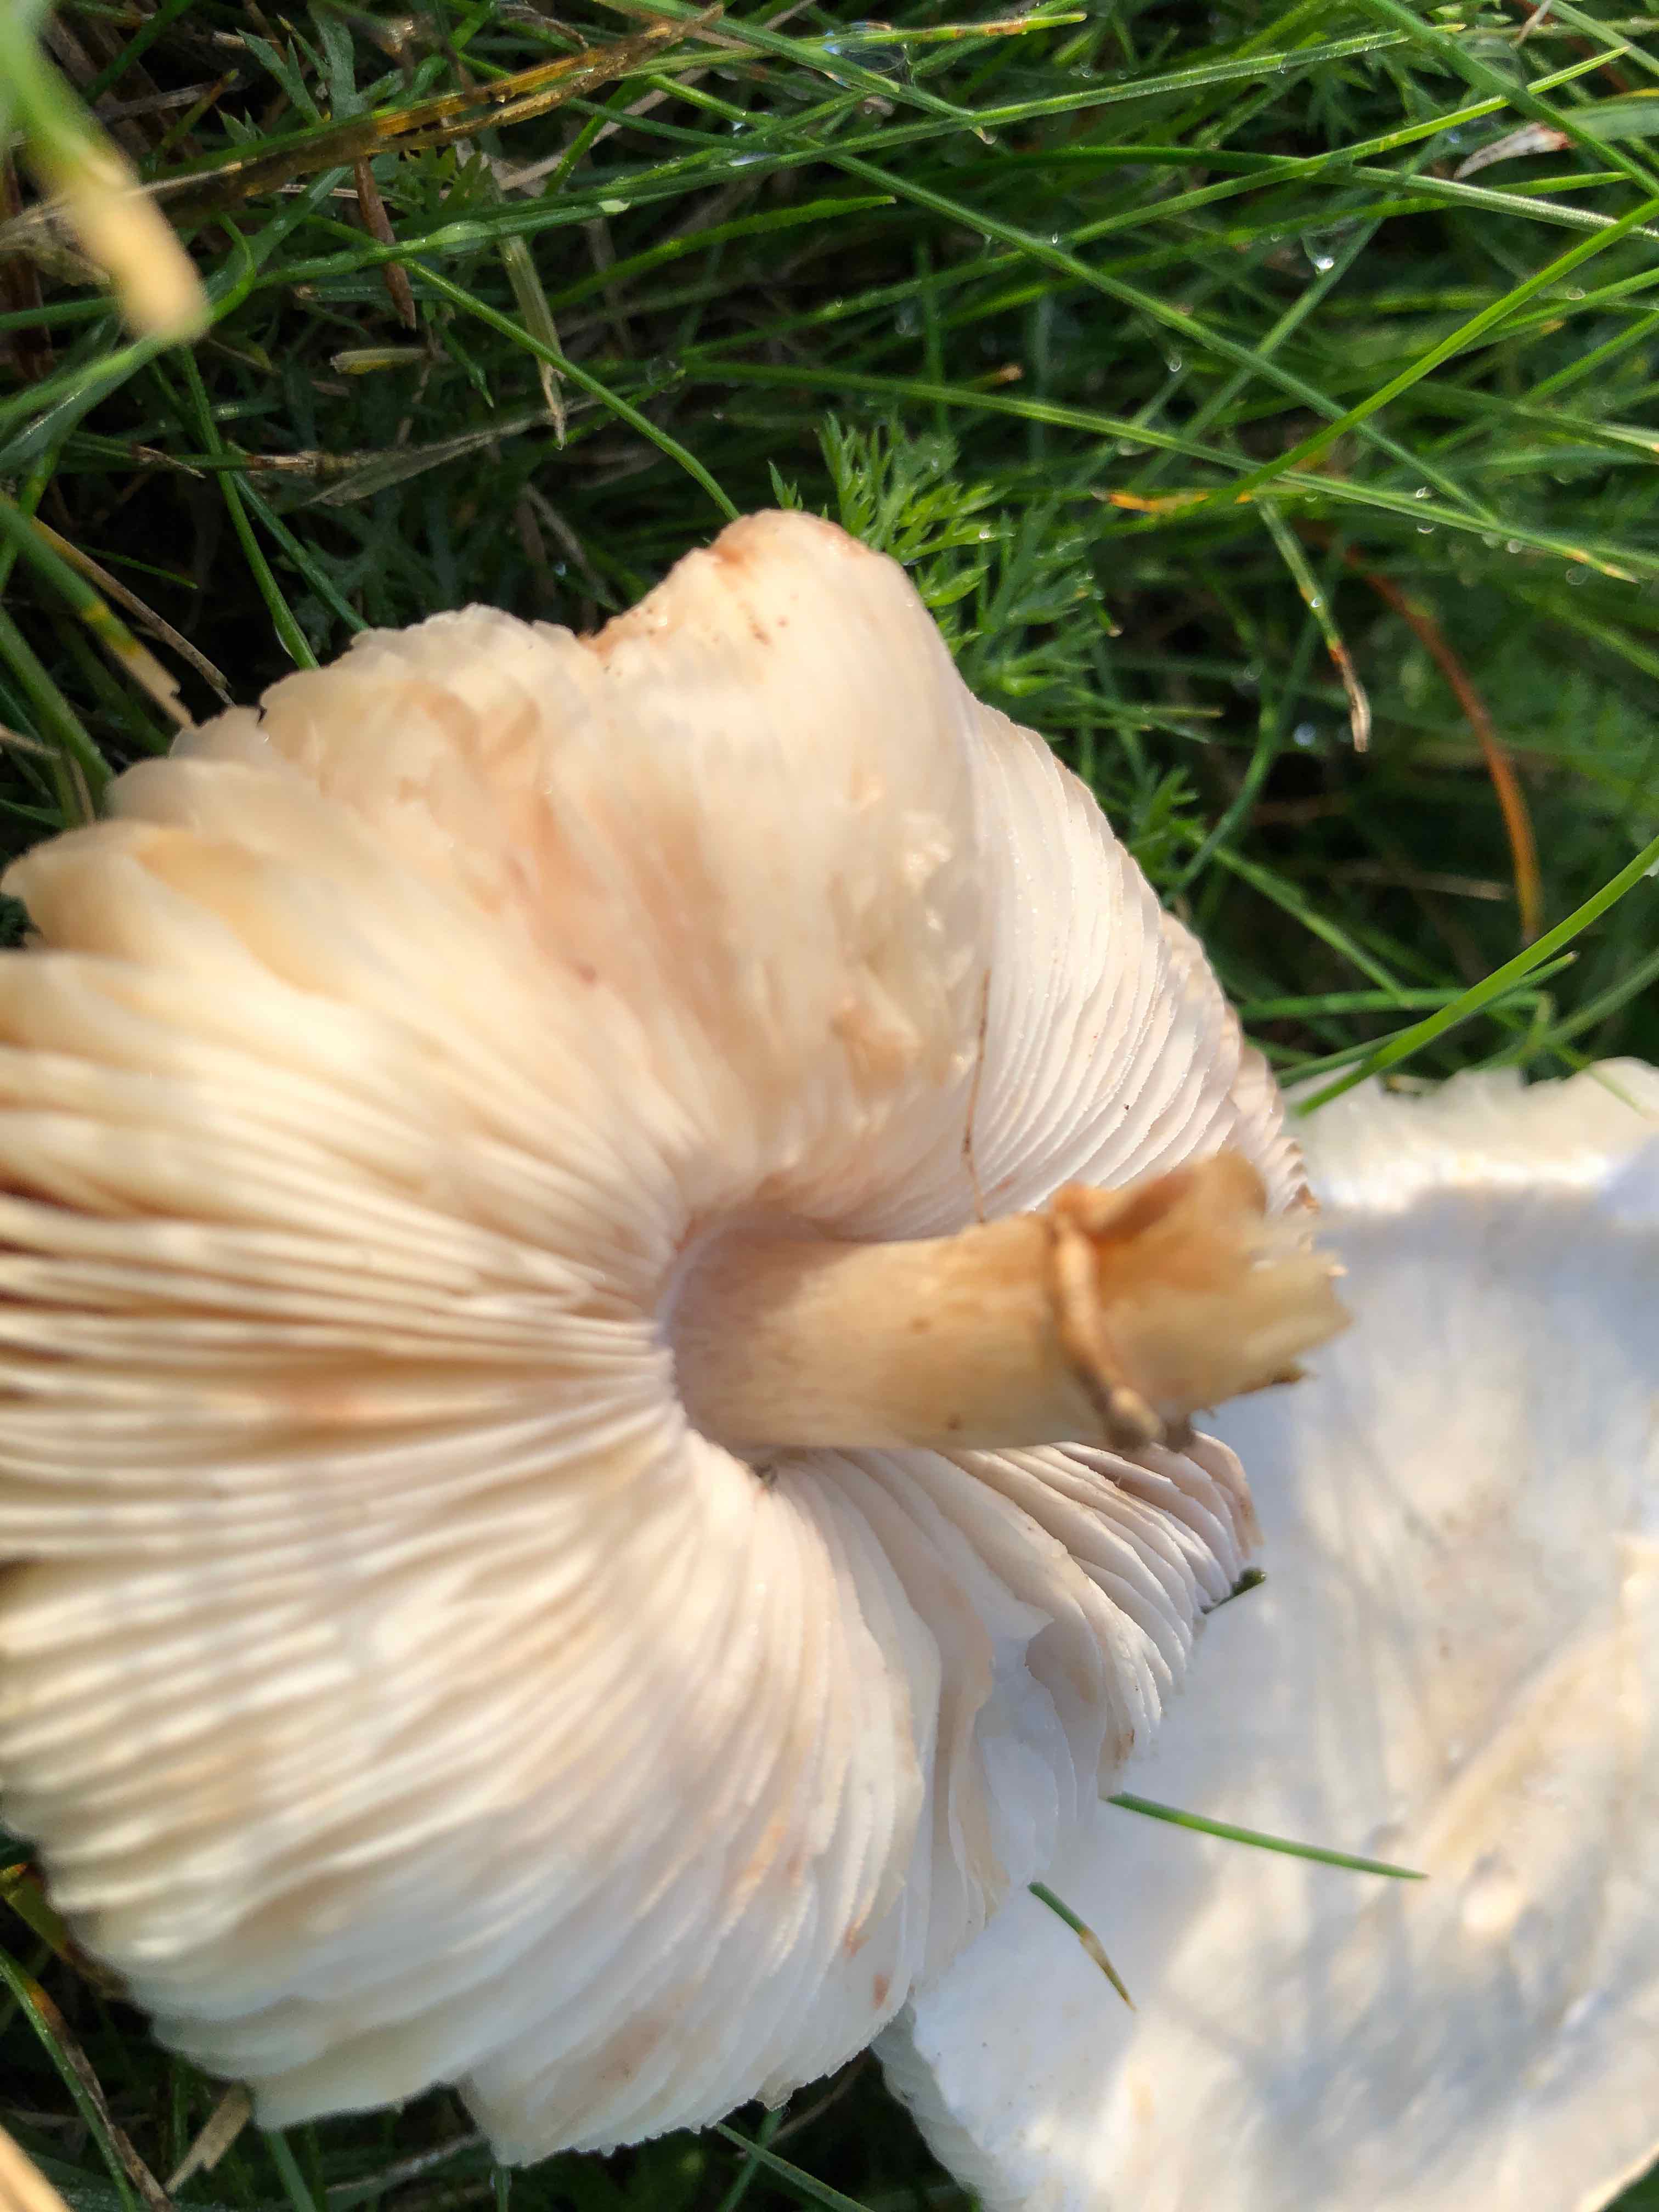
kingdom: Fungi
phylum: Basidiomycota
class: Agaricomycetes
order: Agaricales
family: Agaricaceae
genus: Leucoagaricus
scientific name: Leucoagaricus leucothites
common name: rosabladet silkehat
